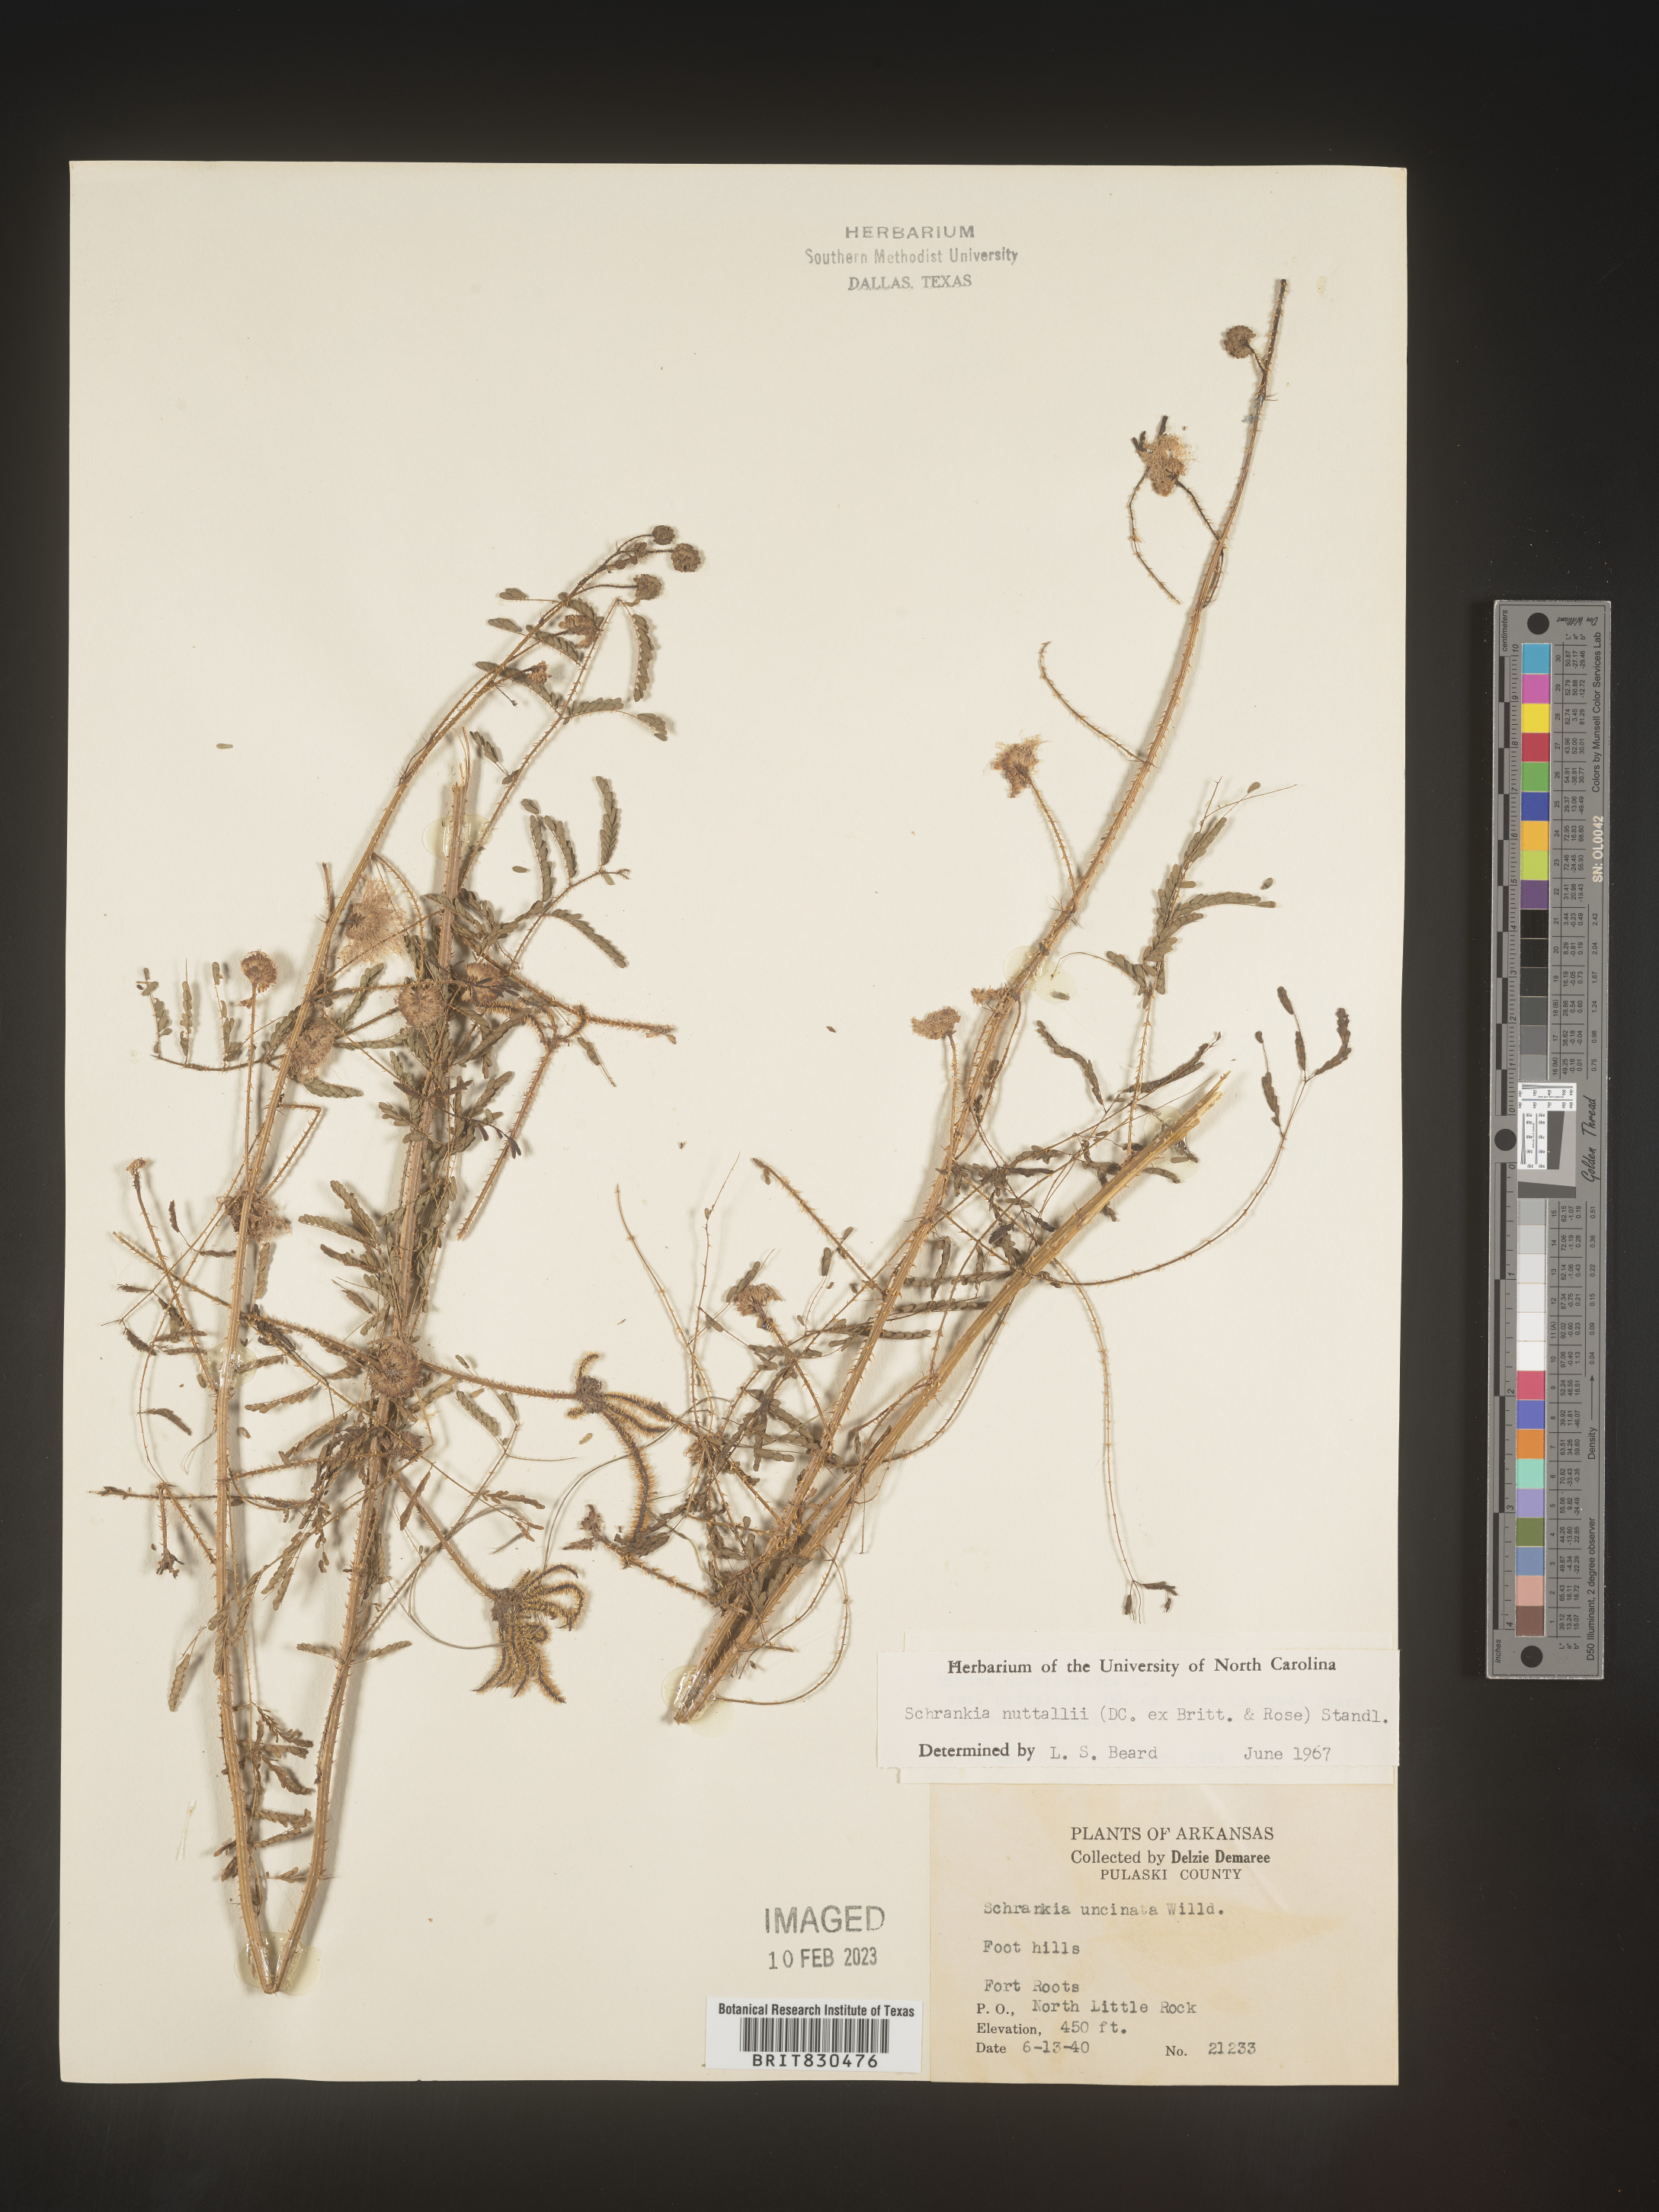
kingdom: Plantae
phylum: Tracheophyta
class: Magnoliopsida
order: Fabales
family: Fabaceae
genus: Mimosa
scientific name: Mimosa quadrivalvis
